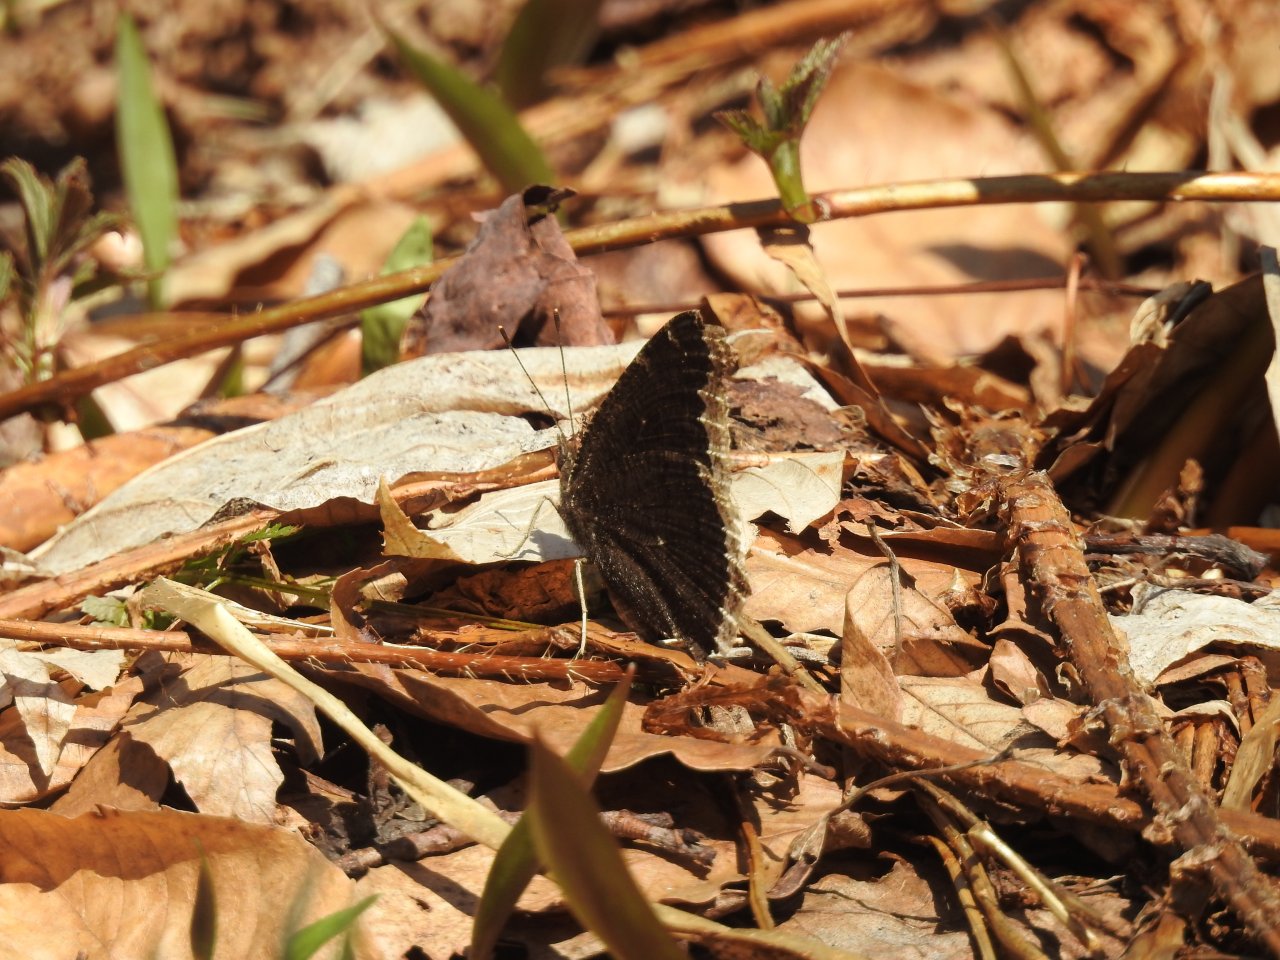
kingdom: Animalia
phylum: Arthropoda
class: Insecta
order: Lepidoptera
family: Nymphalidae
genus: Nymphalis
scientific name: Nymphalis antiopa
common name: Mourning Cloak
